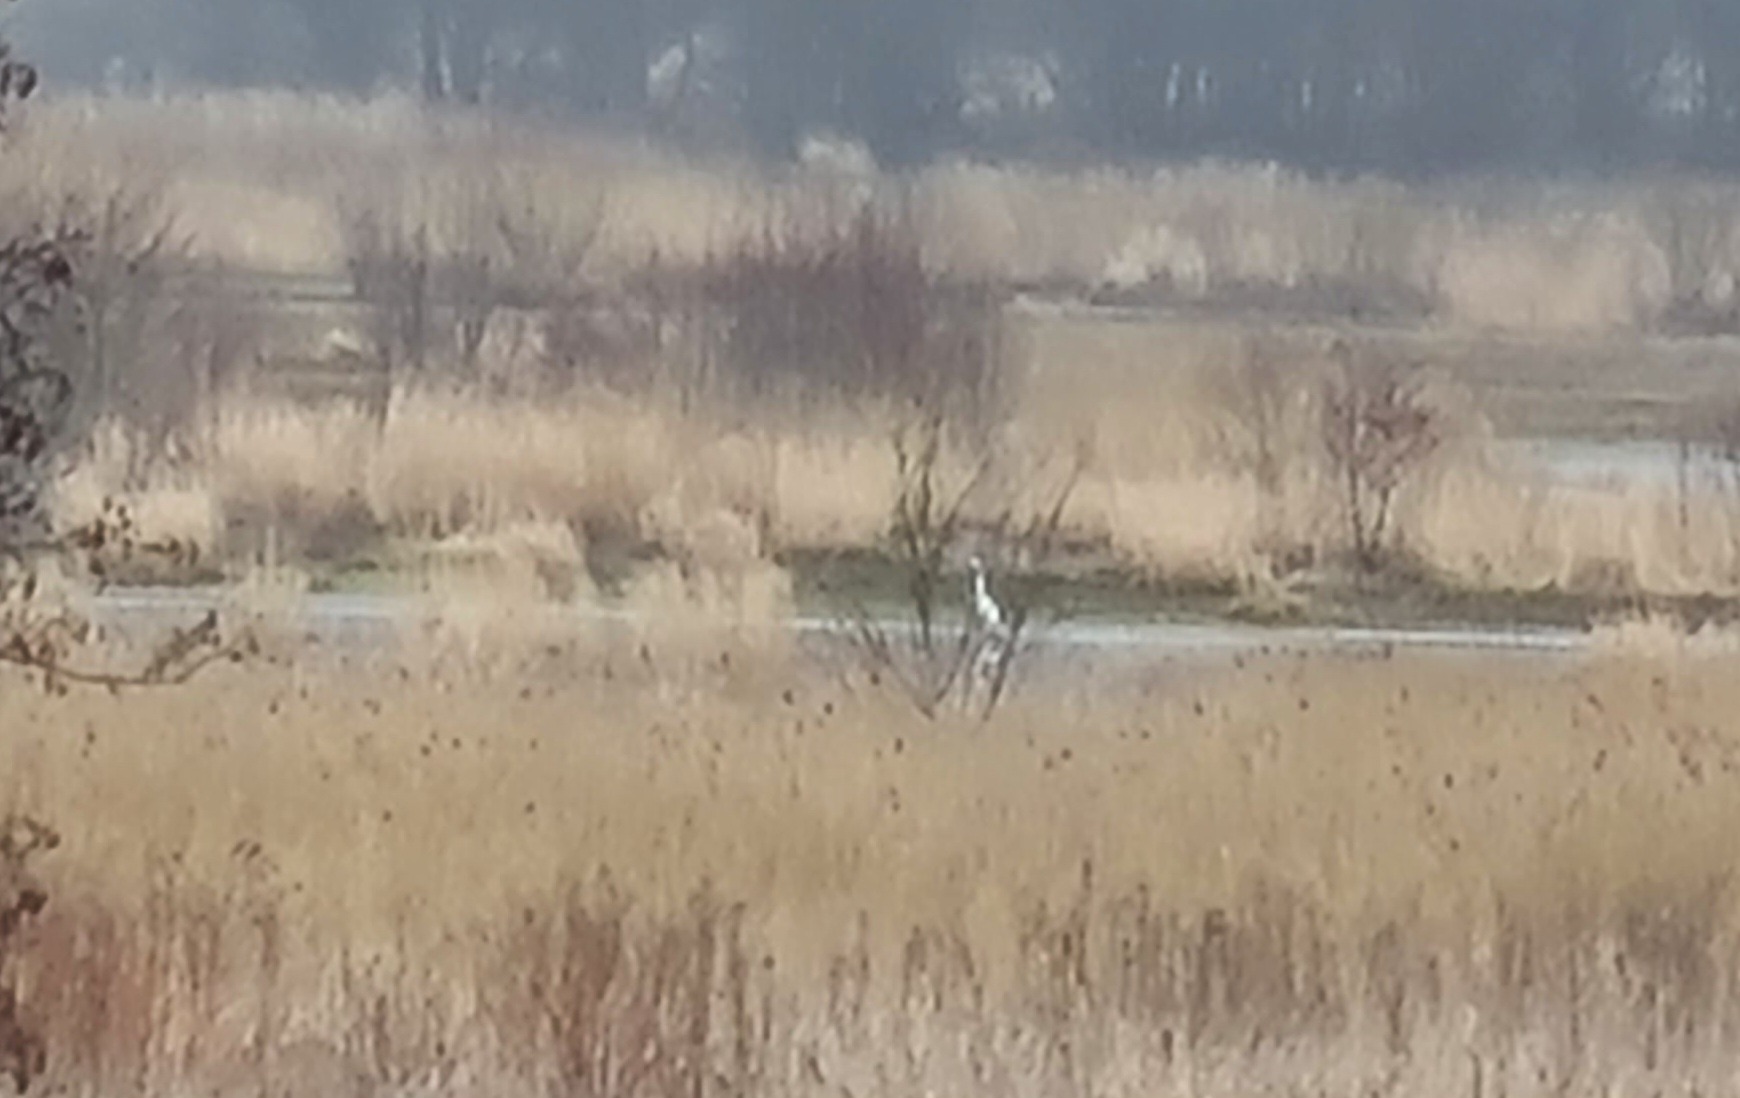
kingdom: Animalia
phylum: Chordata
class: Aves
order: Pelecaniformes
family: Ardeidae
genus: Ardea
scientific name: Ardea alba
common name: Sølvhejre
